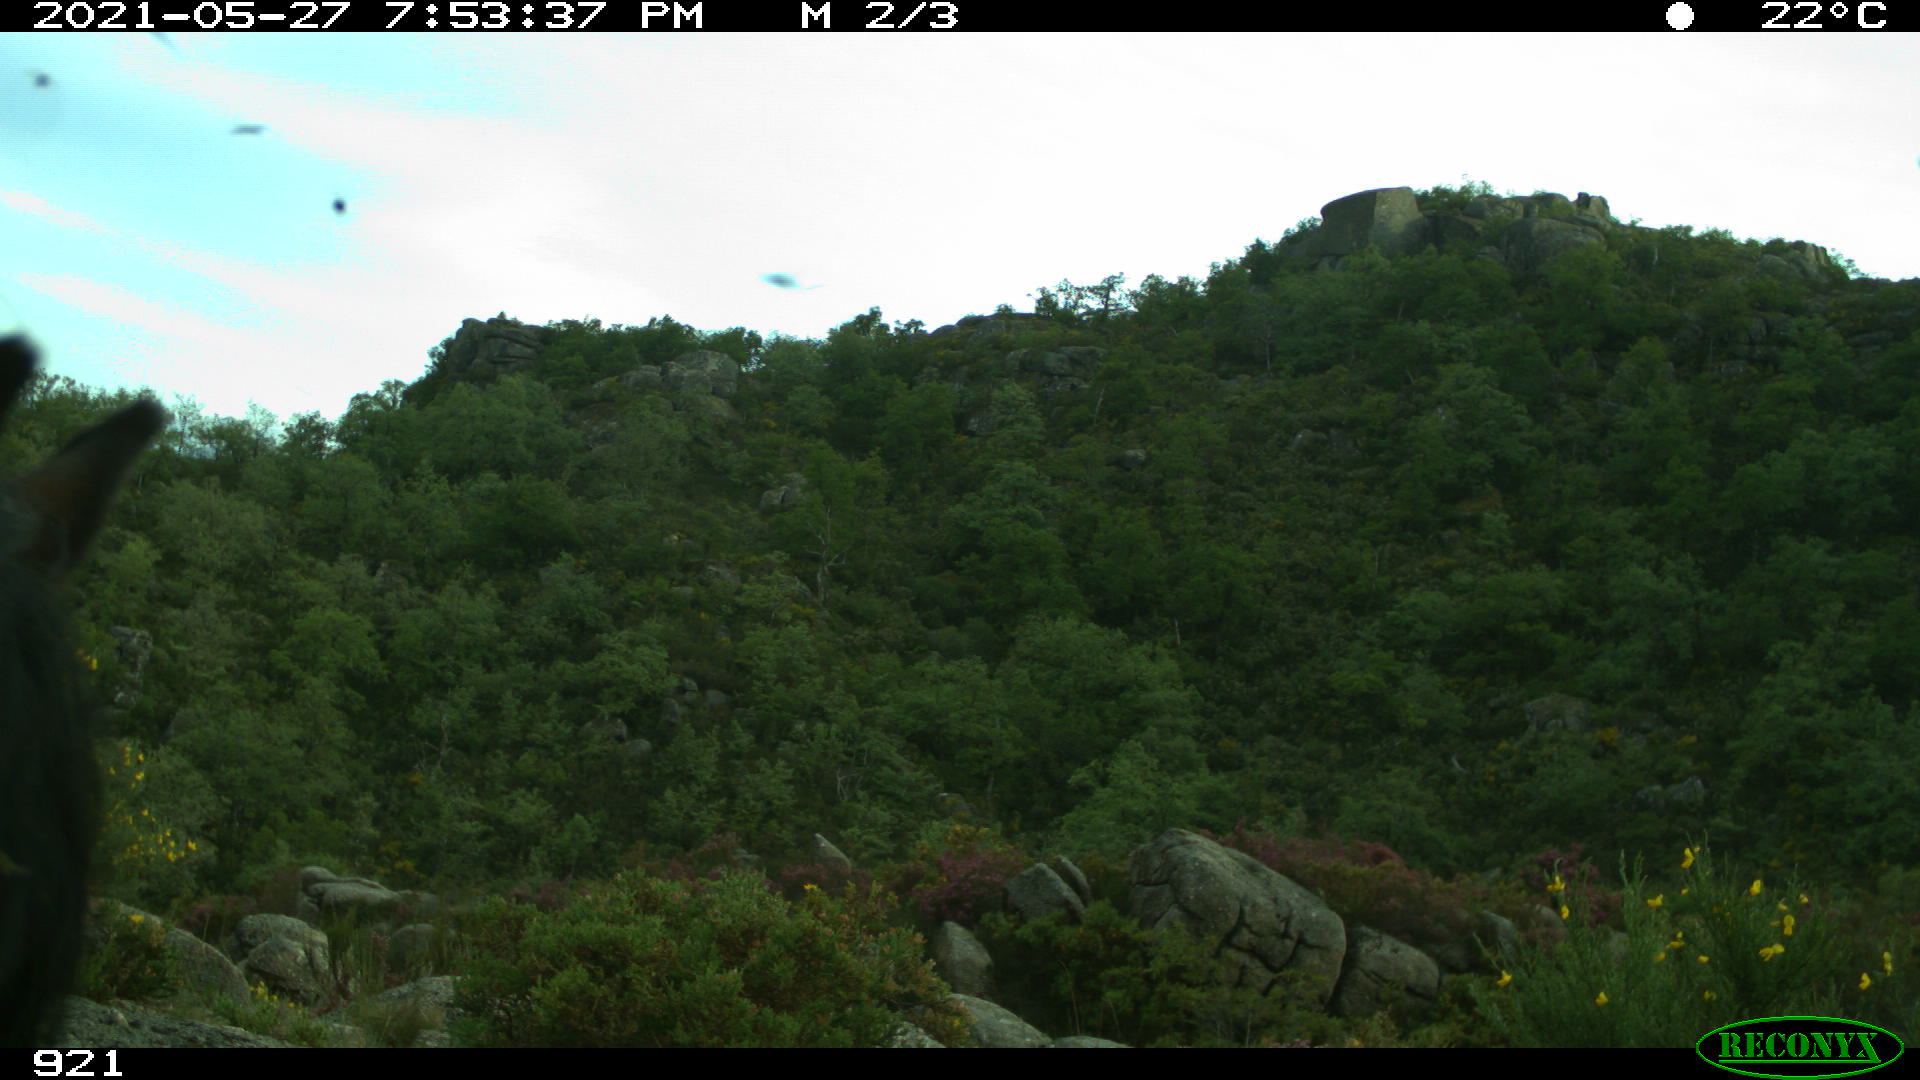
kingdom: Animalia
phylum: Chordata
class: Mammalia
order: Perissodactyla
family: Equidae
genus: Equus
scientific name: Equus caballus
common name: Horse
